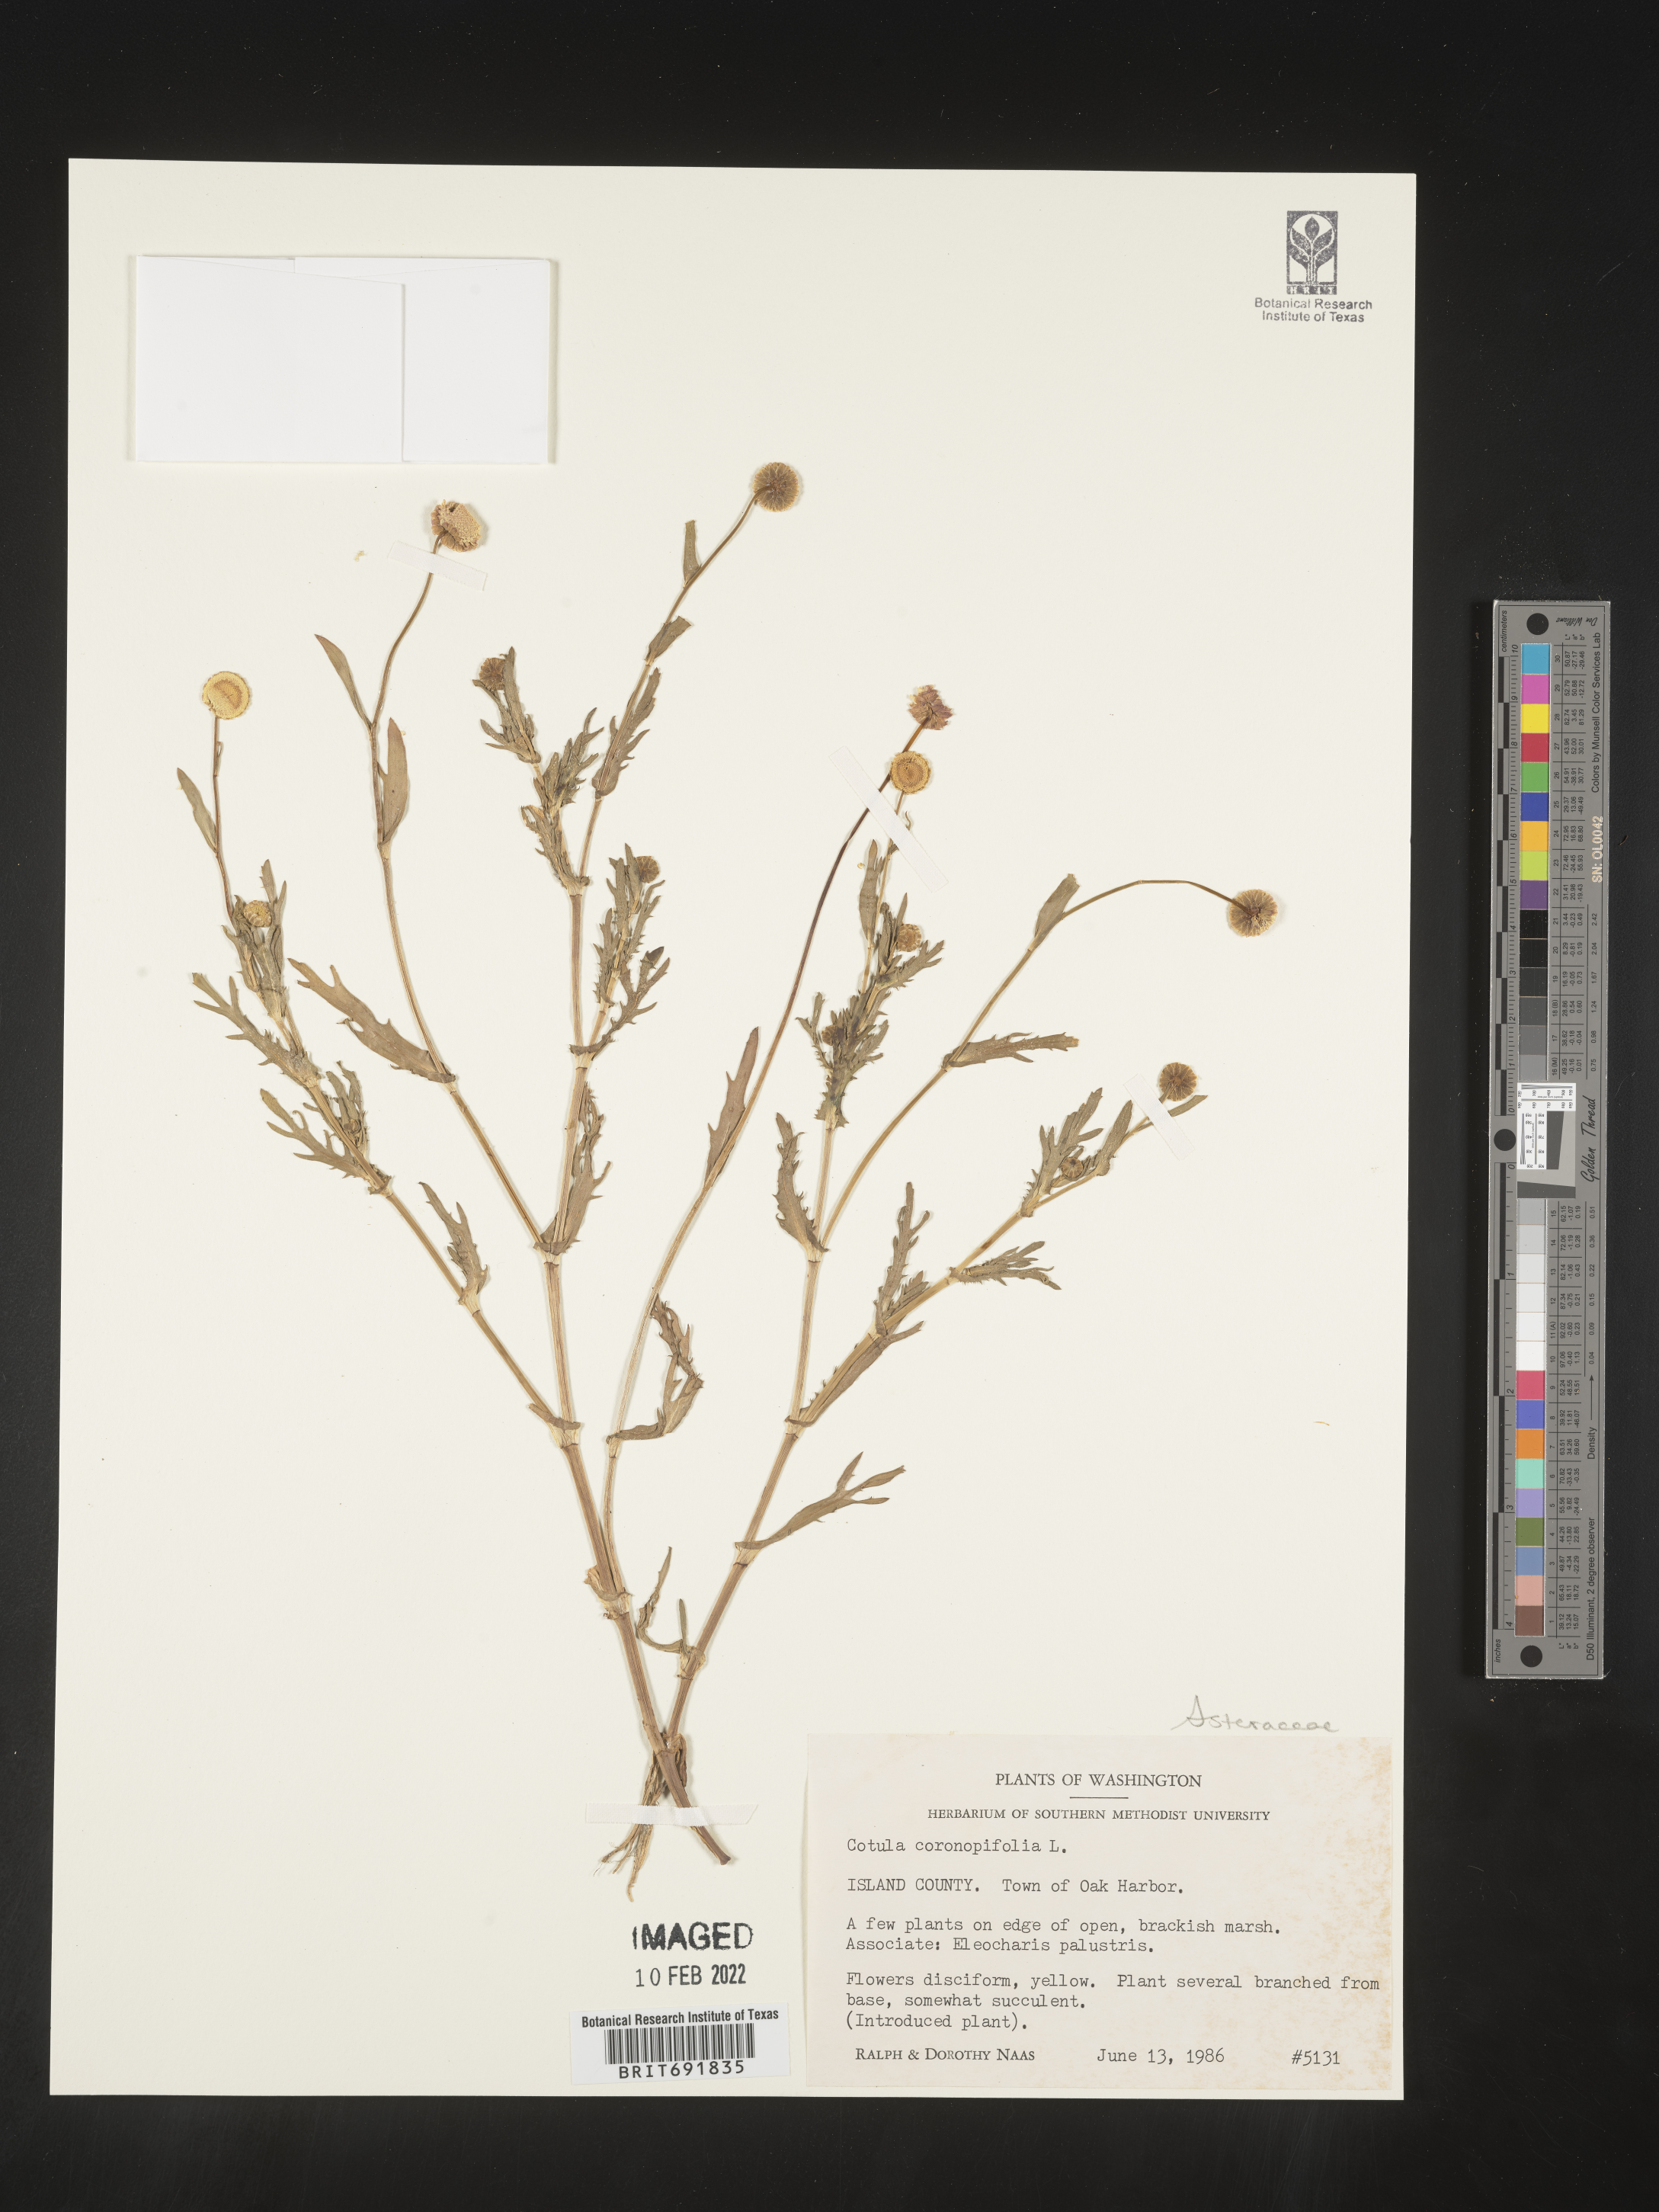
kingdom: Plantae
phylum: Tracheophyta
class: Magnoliopsida
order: Asterales
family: Asteraceae
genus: Cotula
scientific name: Cotula
